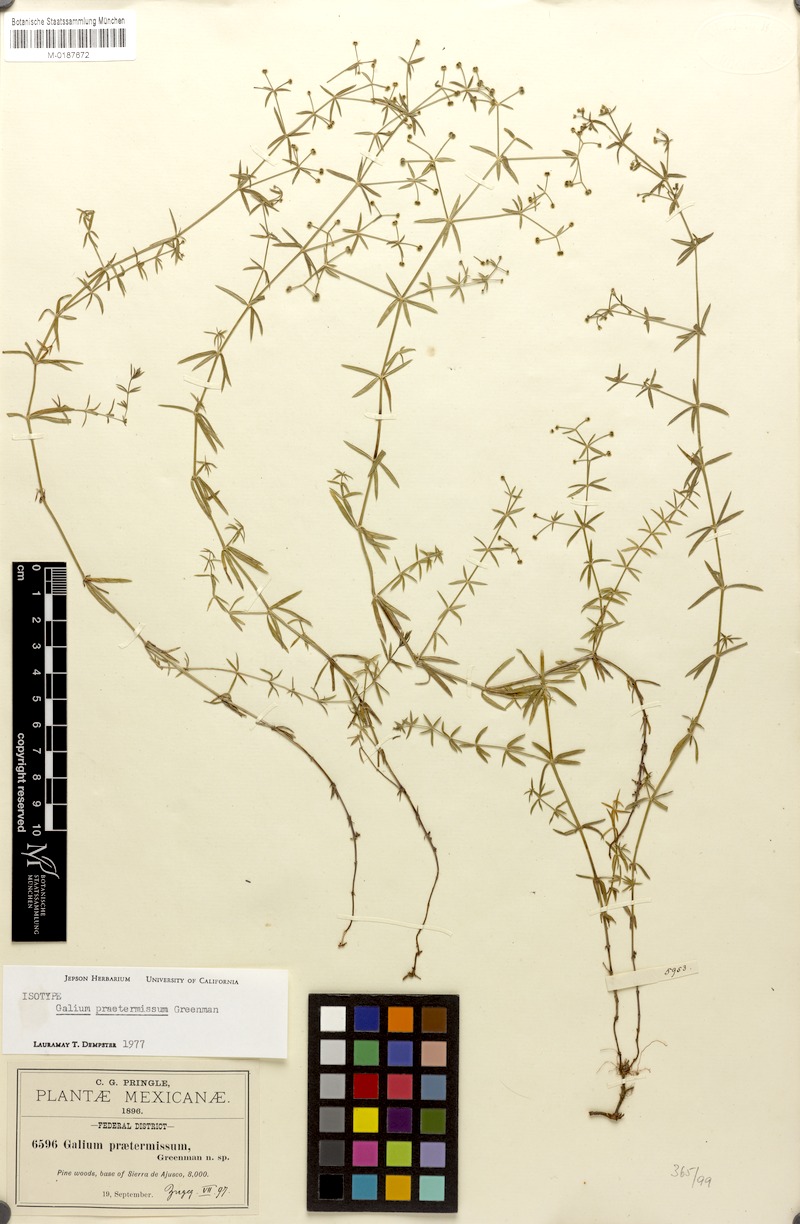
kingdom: Plantae
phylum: Tracheophyta
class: Magnoliopsida
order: Gentianales
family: Rubiaceae
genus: Galium
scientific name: Galium praetermissum
